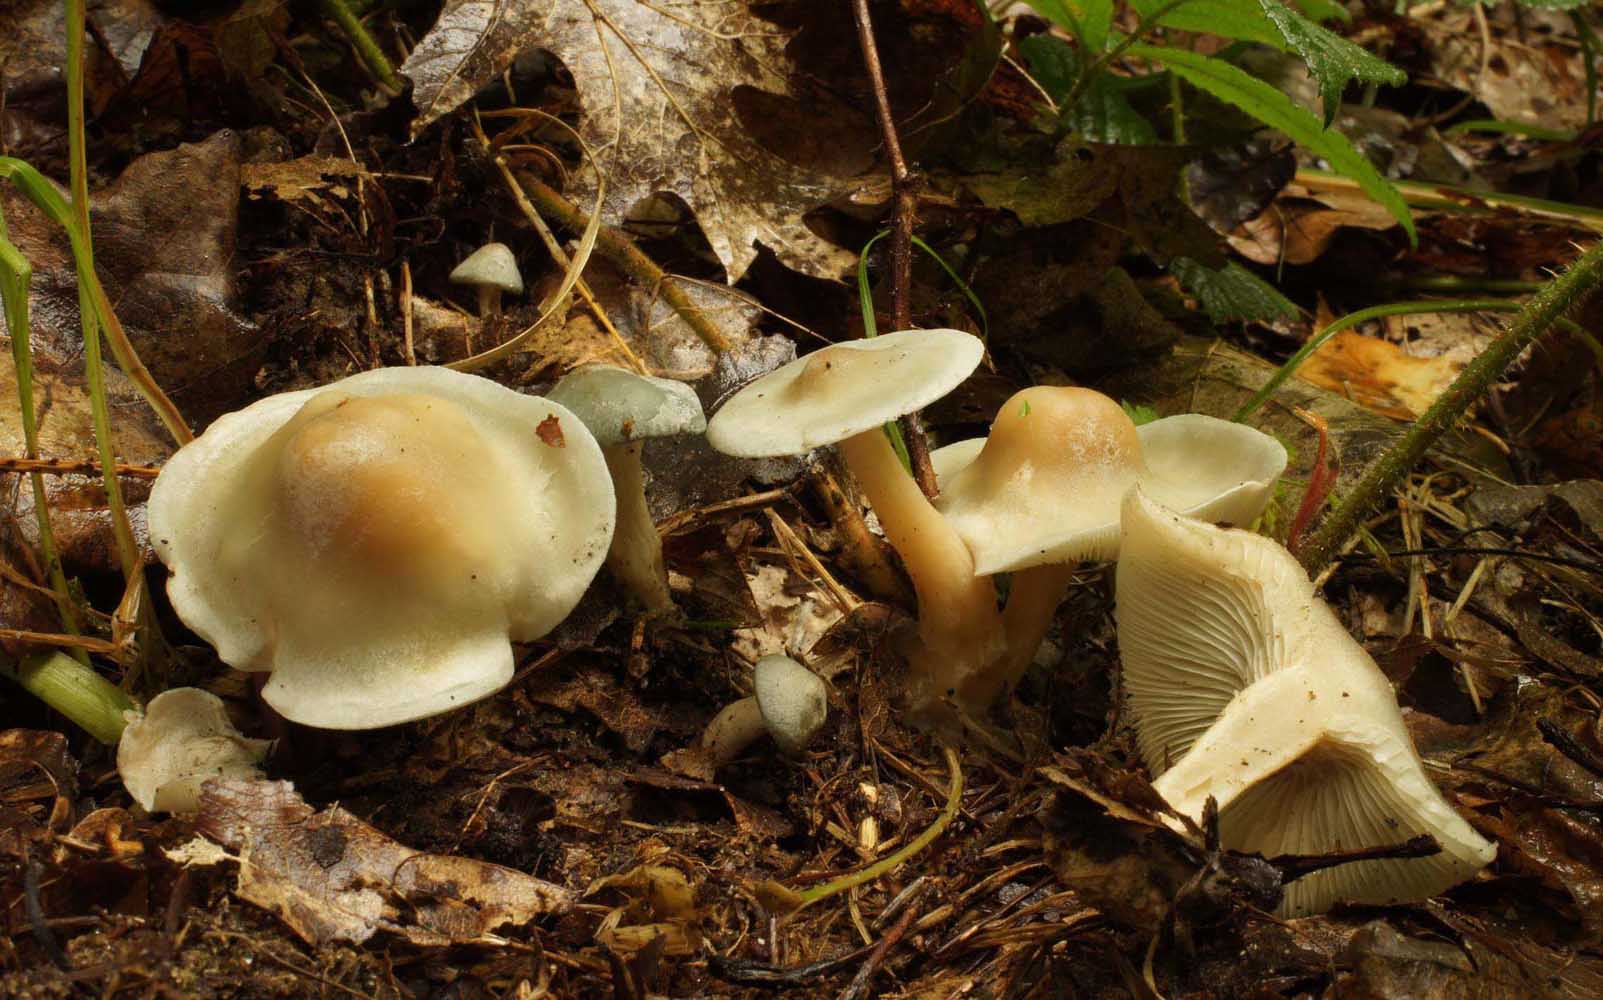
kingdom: Fungi
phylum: Basidiomycota
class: Agaricomycetes
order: Agaricales
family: Tricholomataceae
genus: Clitocybe
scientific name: Clitocybe odora
